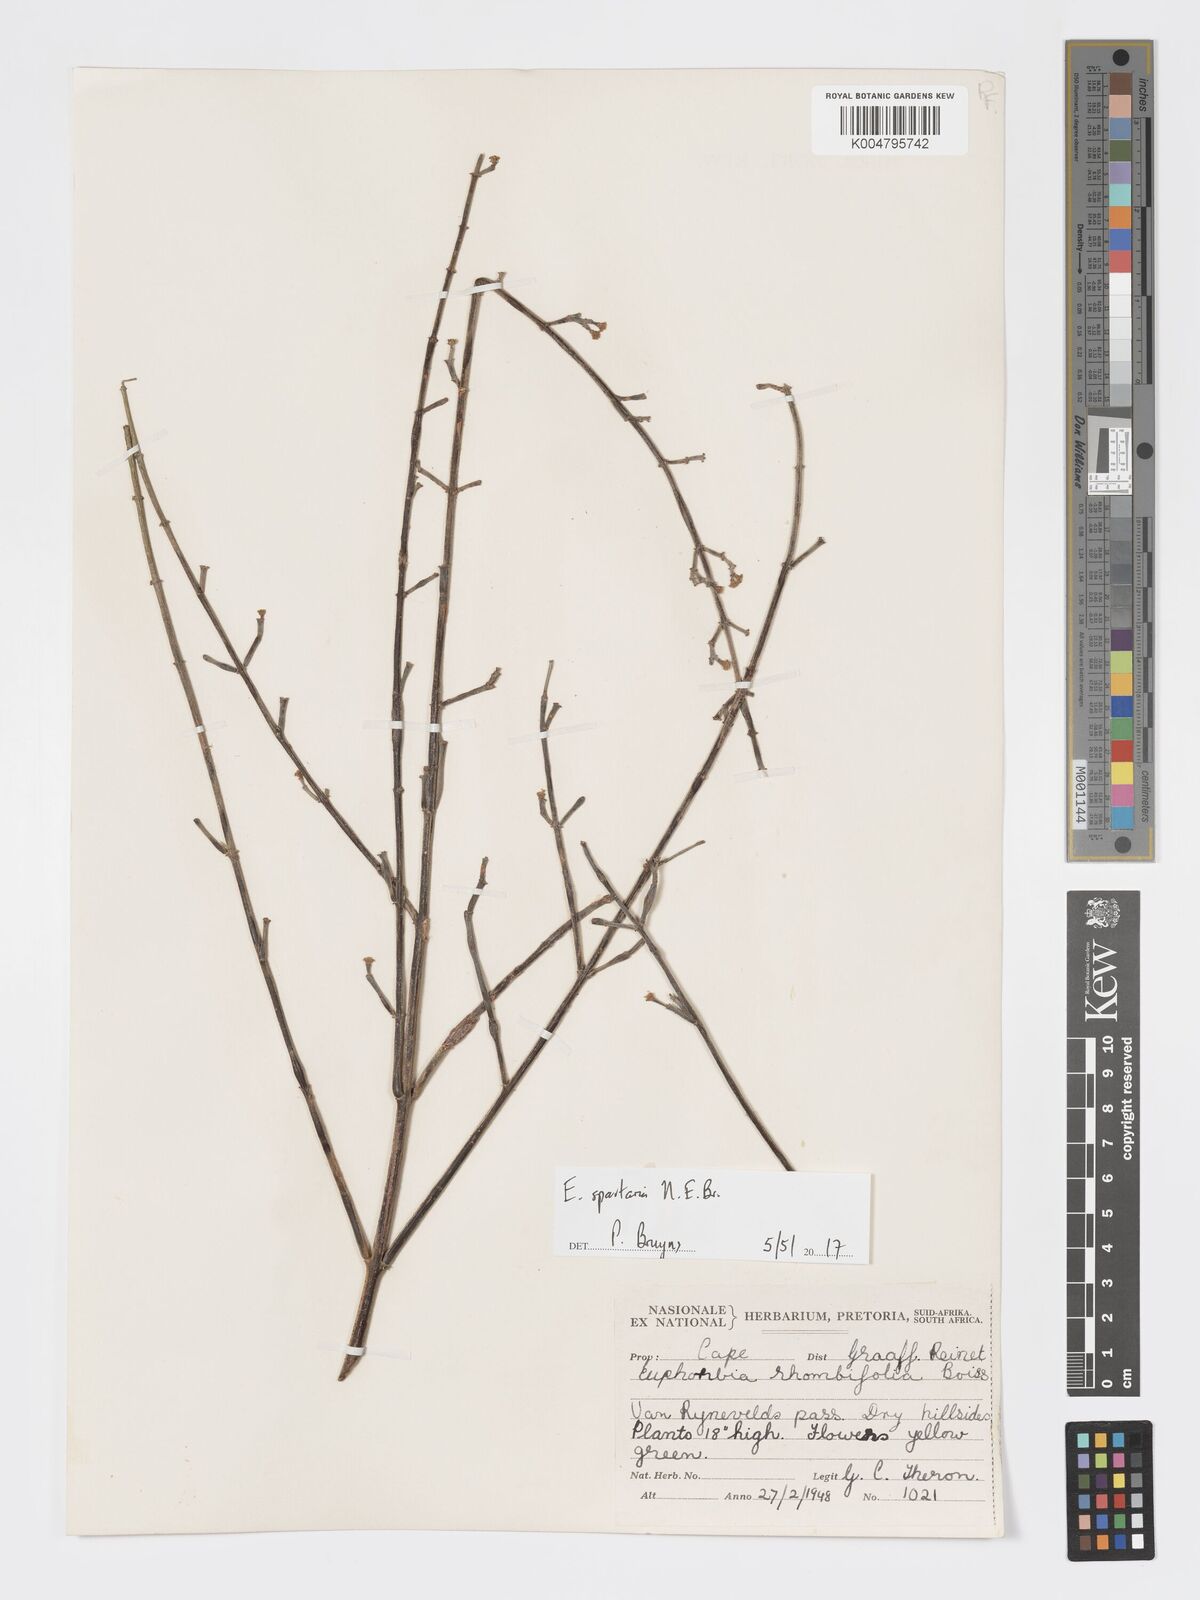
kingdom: Plantae
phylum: Tracheophyta
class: Magnoliopsida
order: Malpighiales
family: Euphorbiaceae
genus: Euphorbia
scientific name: Euphorbia spartaria
